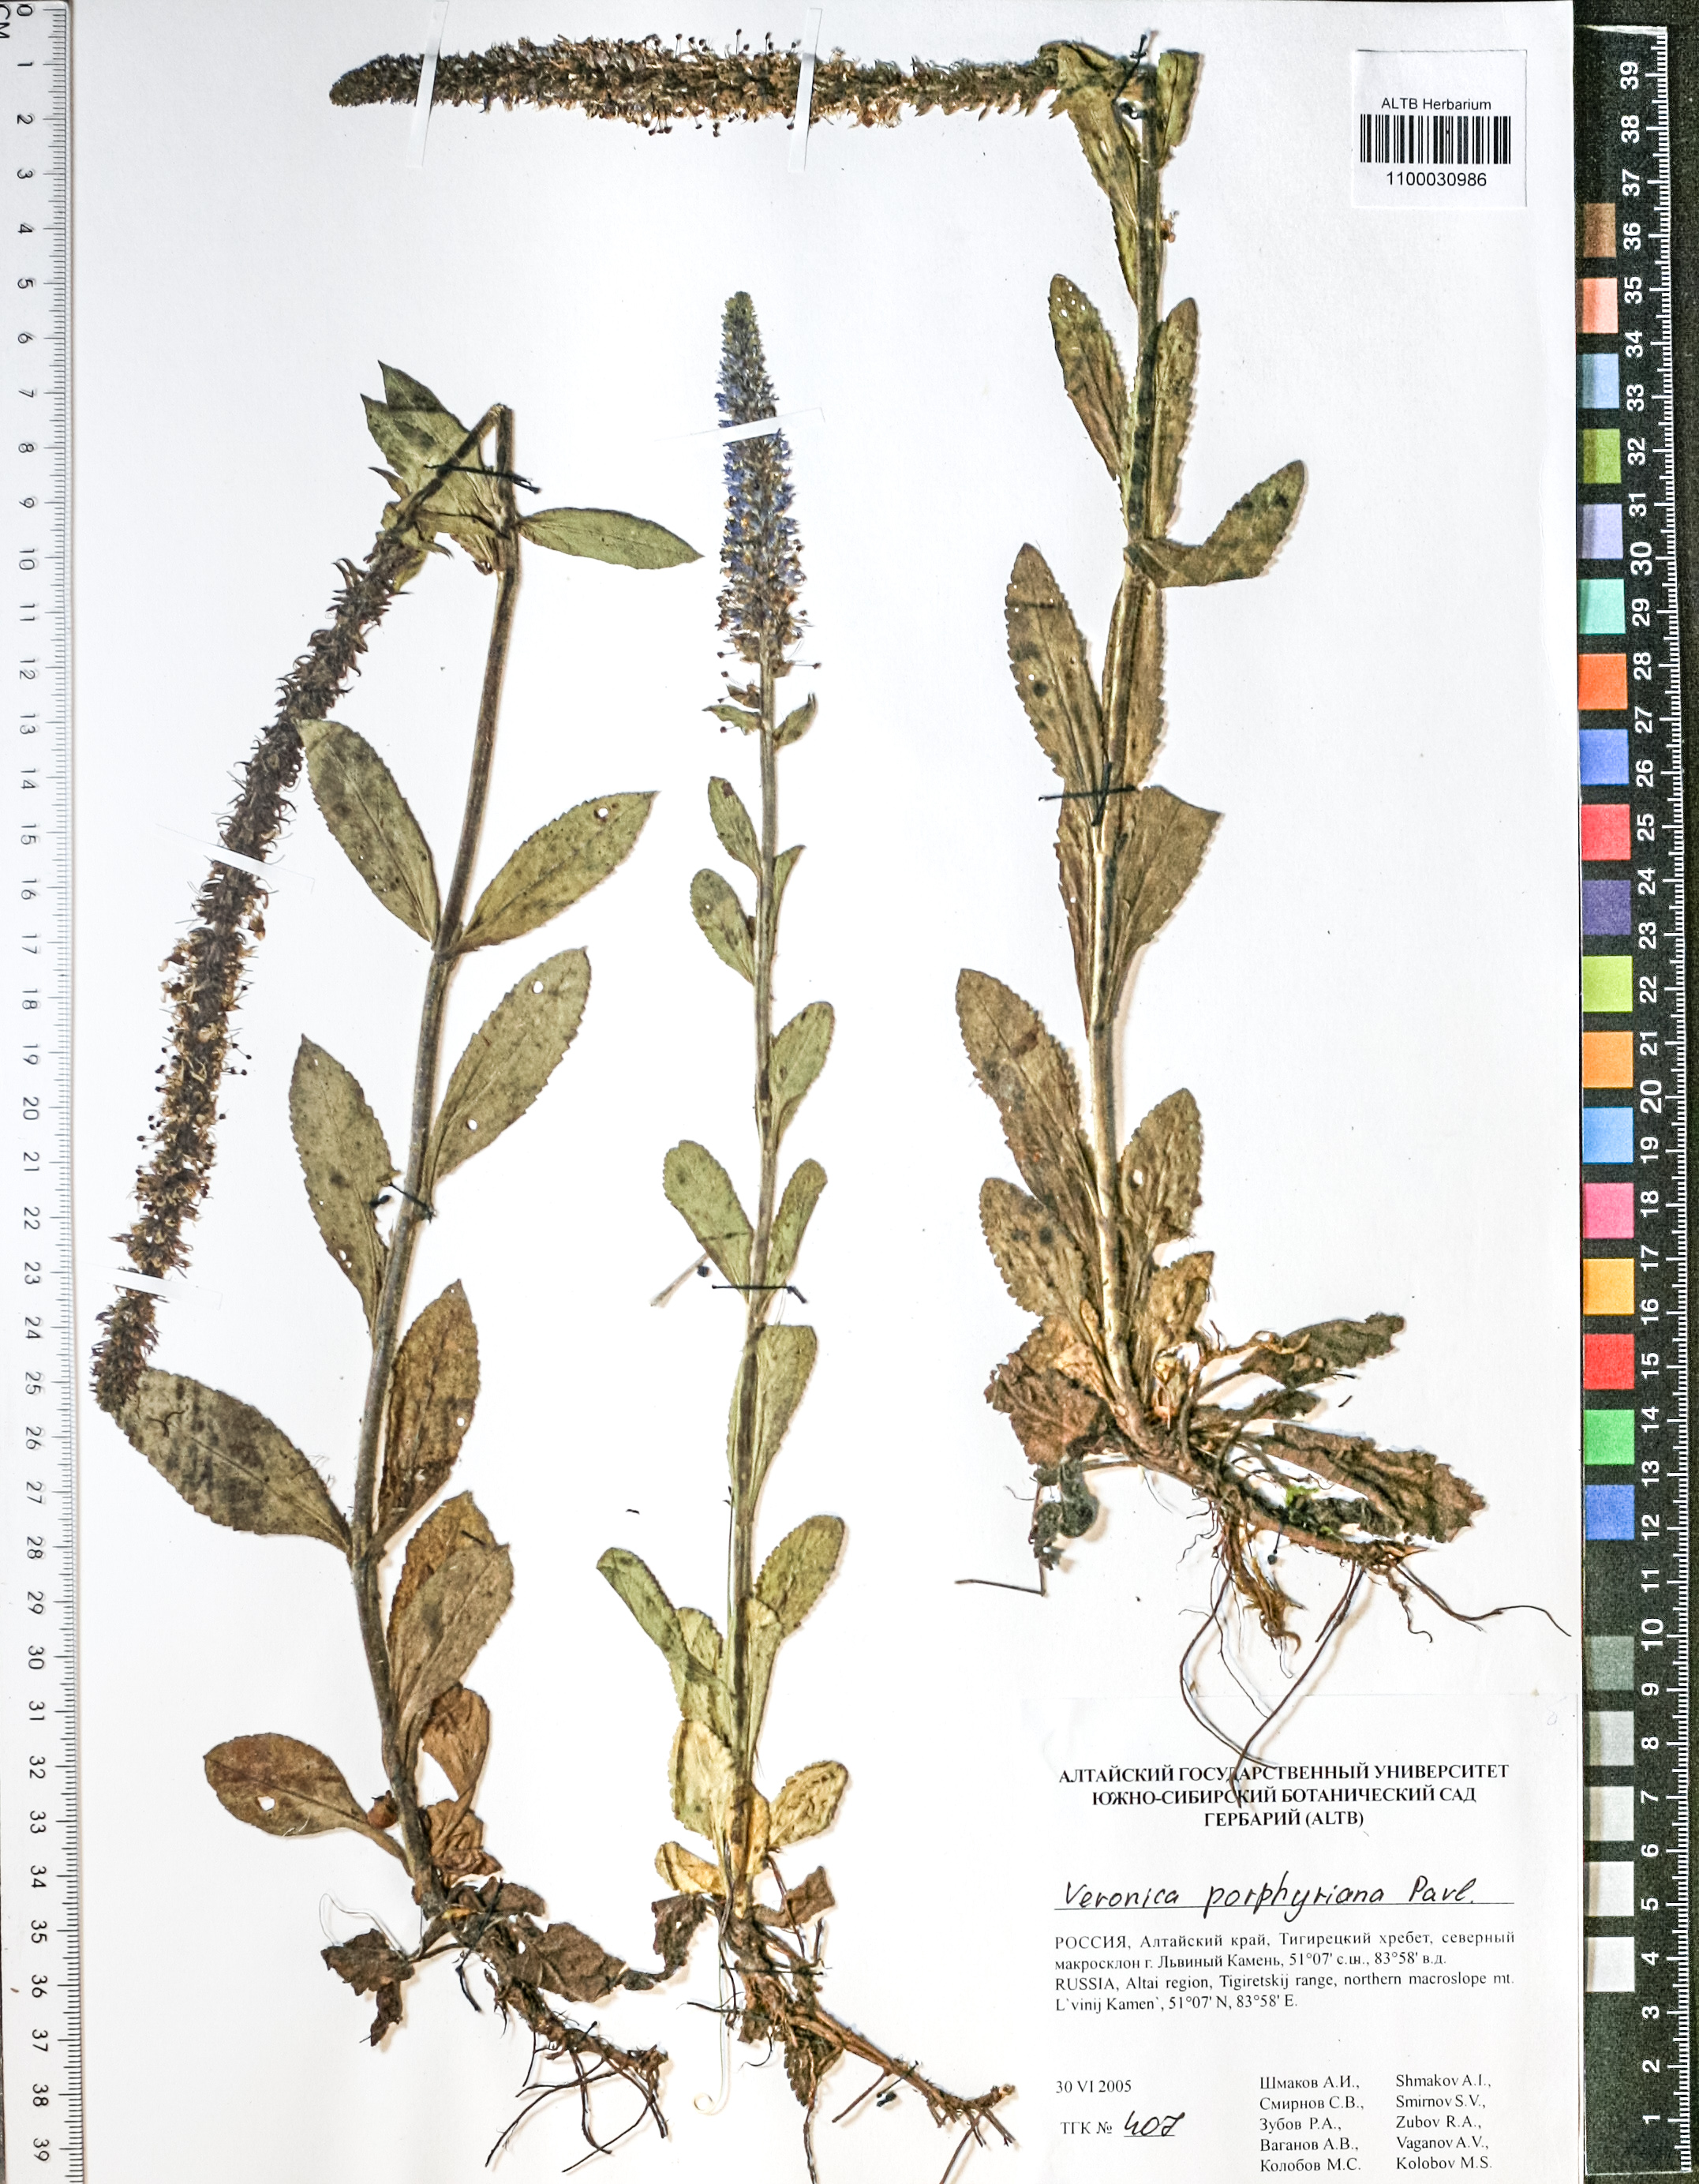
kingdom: Plantae
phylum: Tracheophyta
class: Magnoliopsida
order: Lamiales
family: Plantaginaceae
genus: Veronica
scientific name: Veronica porphyriana
